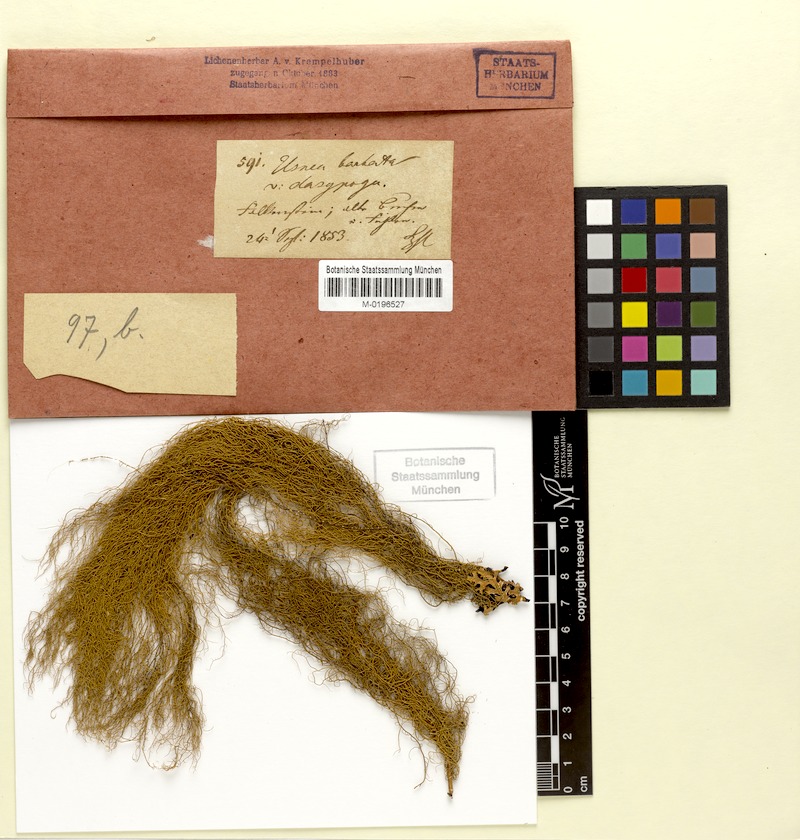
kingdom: Fungi
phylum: Ascomycota
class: Lecanoromycetes
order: Lecanorales
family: Parmeliaceae
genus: Usnea
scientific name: Usnea dasopoga
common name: Fishbone beard lichen
